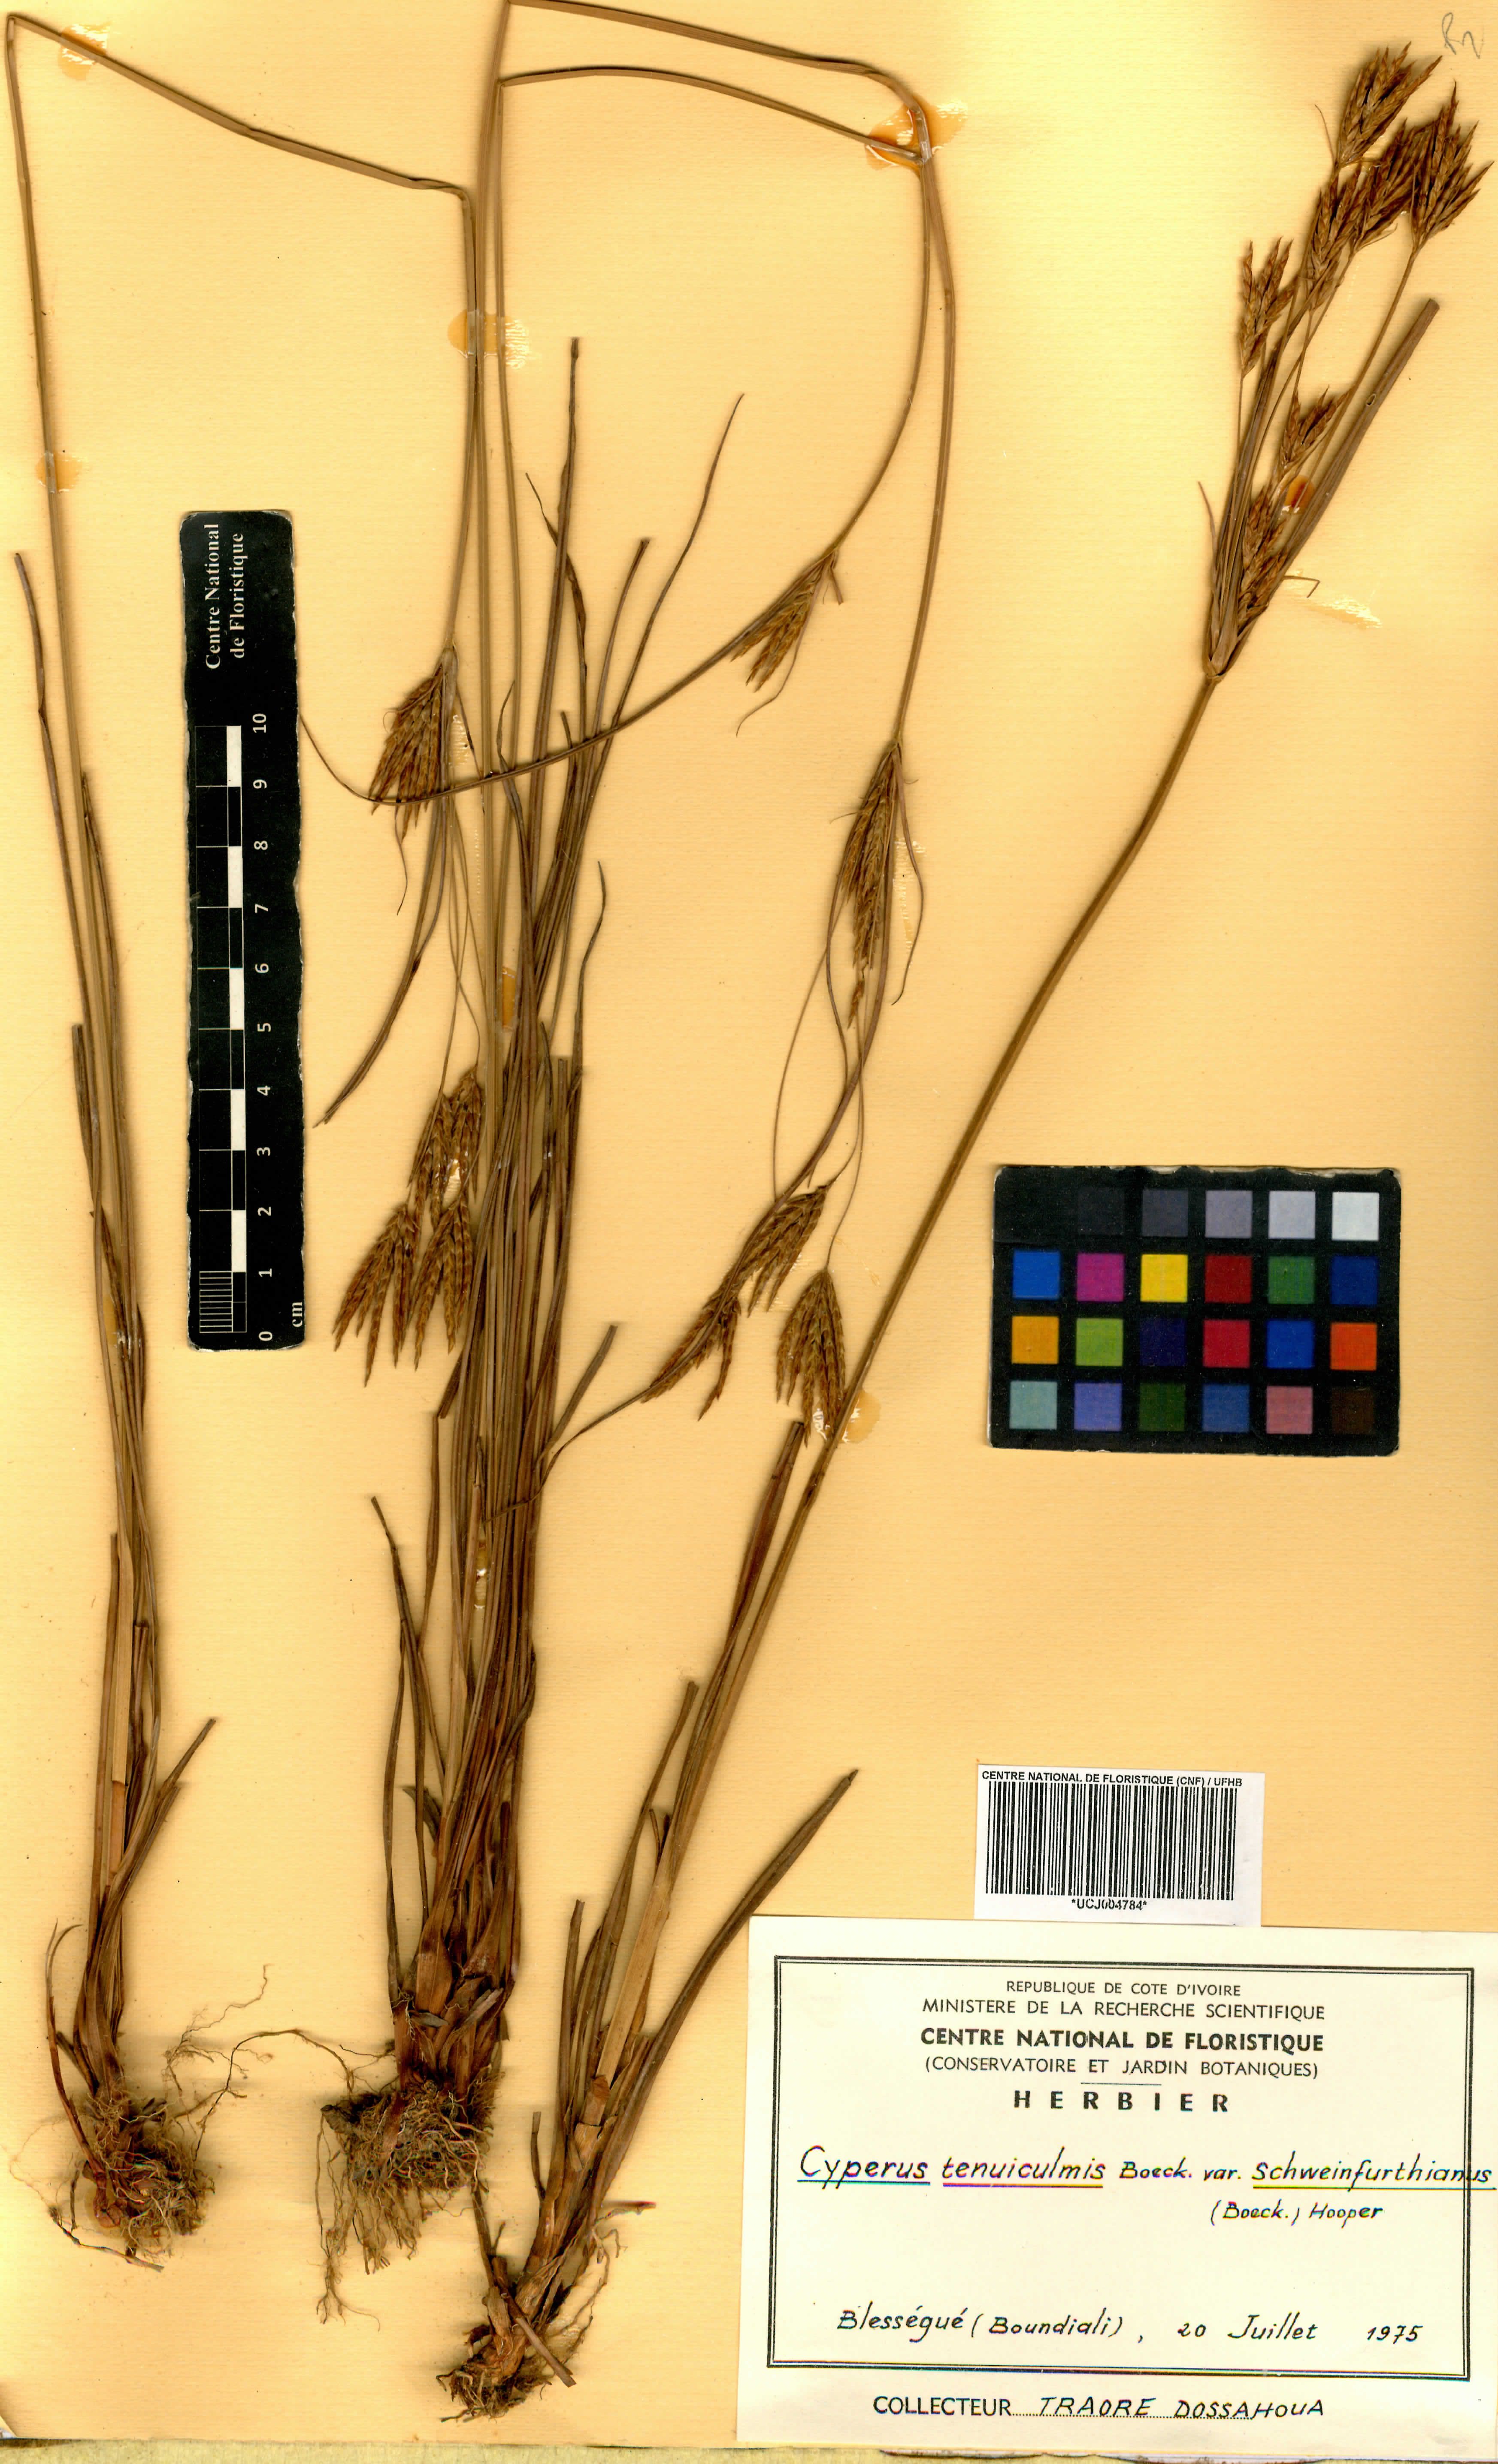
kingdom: Plantae
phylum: Tracheophyta
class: Liliopsida
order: Poales
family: Cyperaceae
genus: Cyperus
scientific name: Cyperus tenuiculmis
